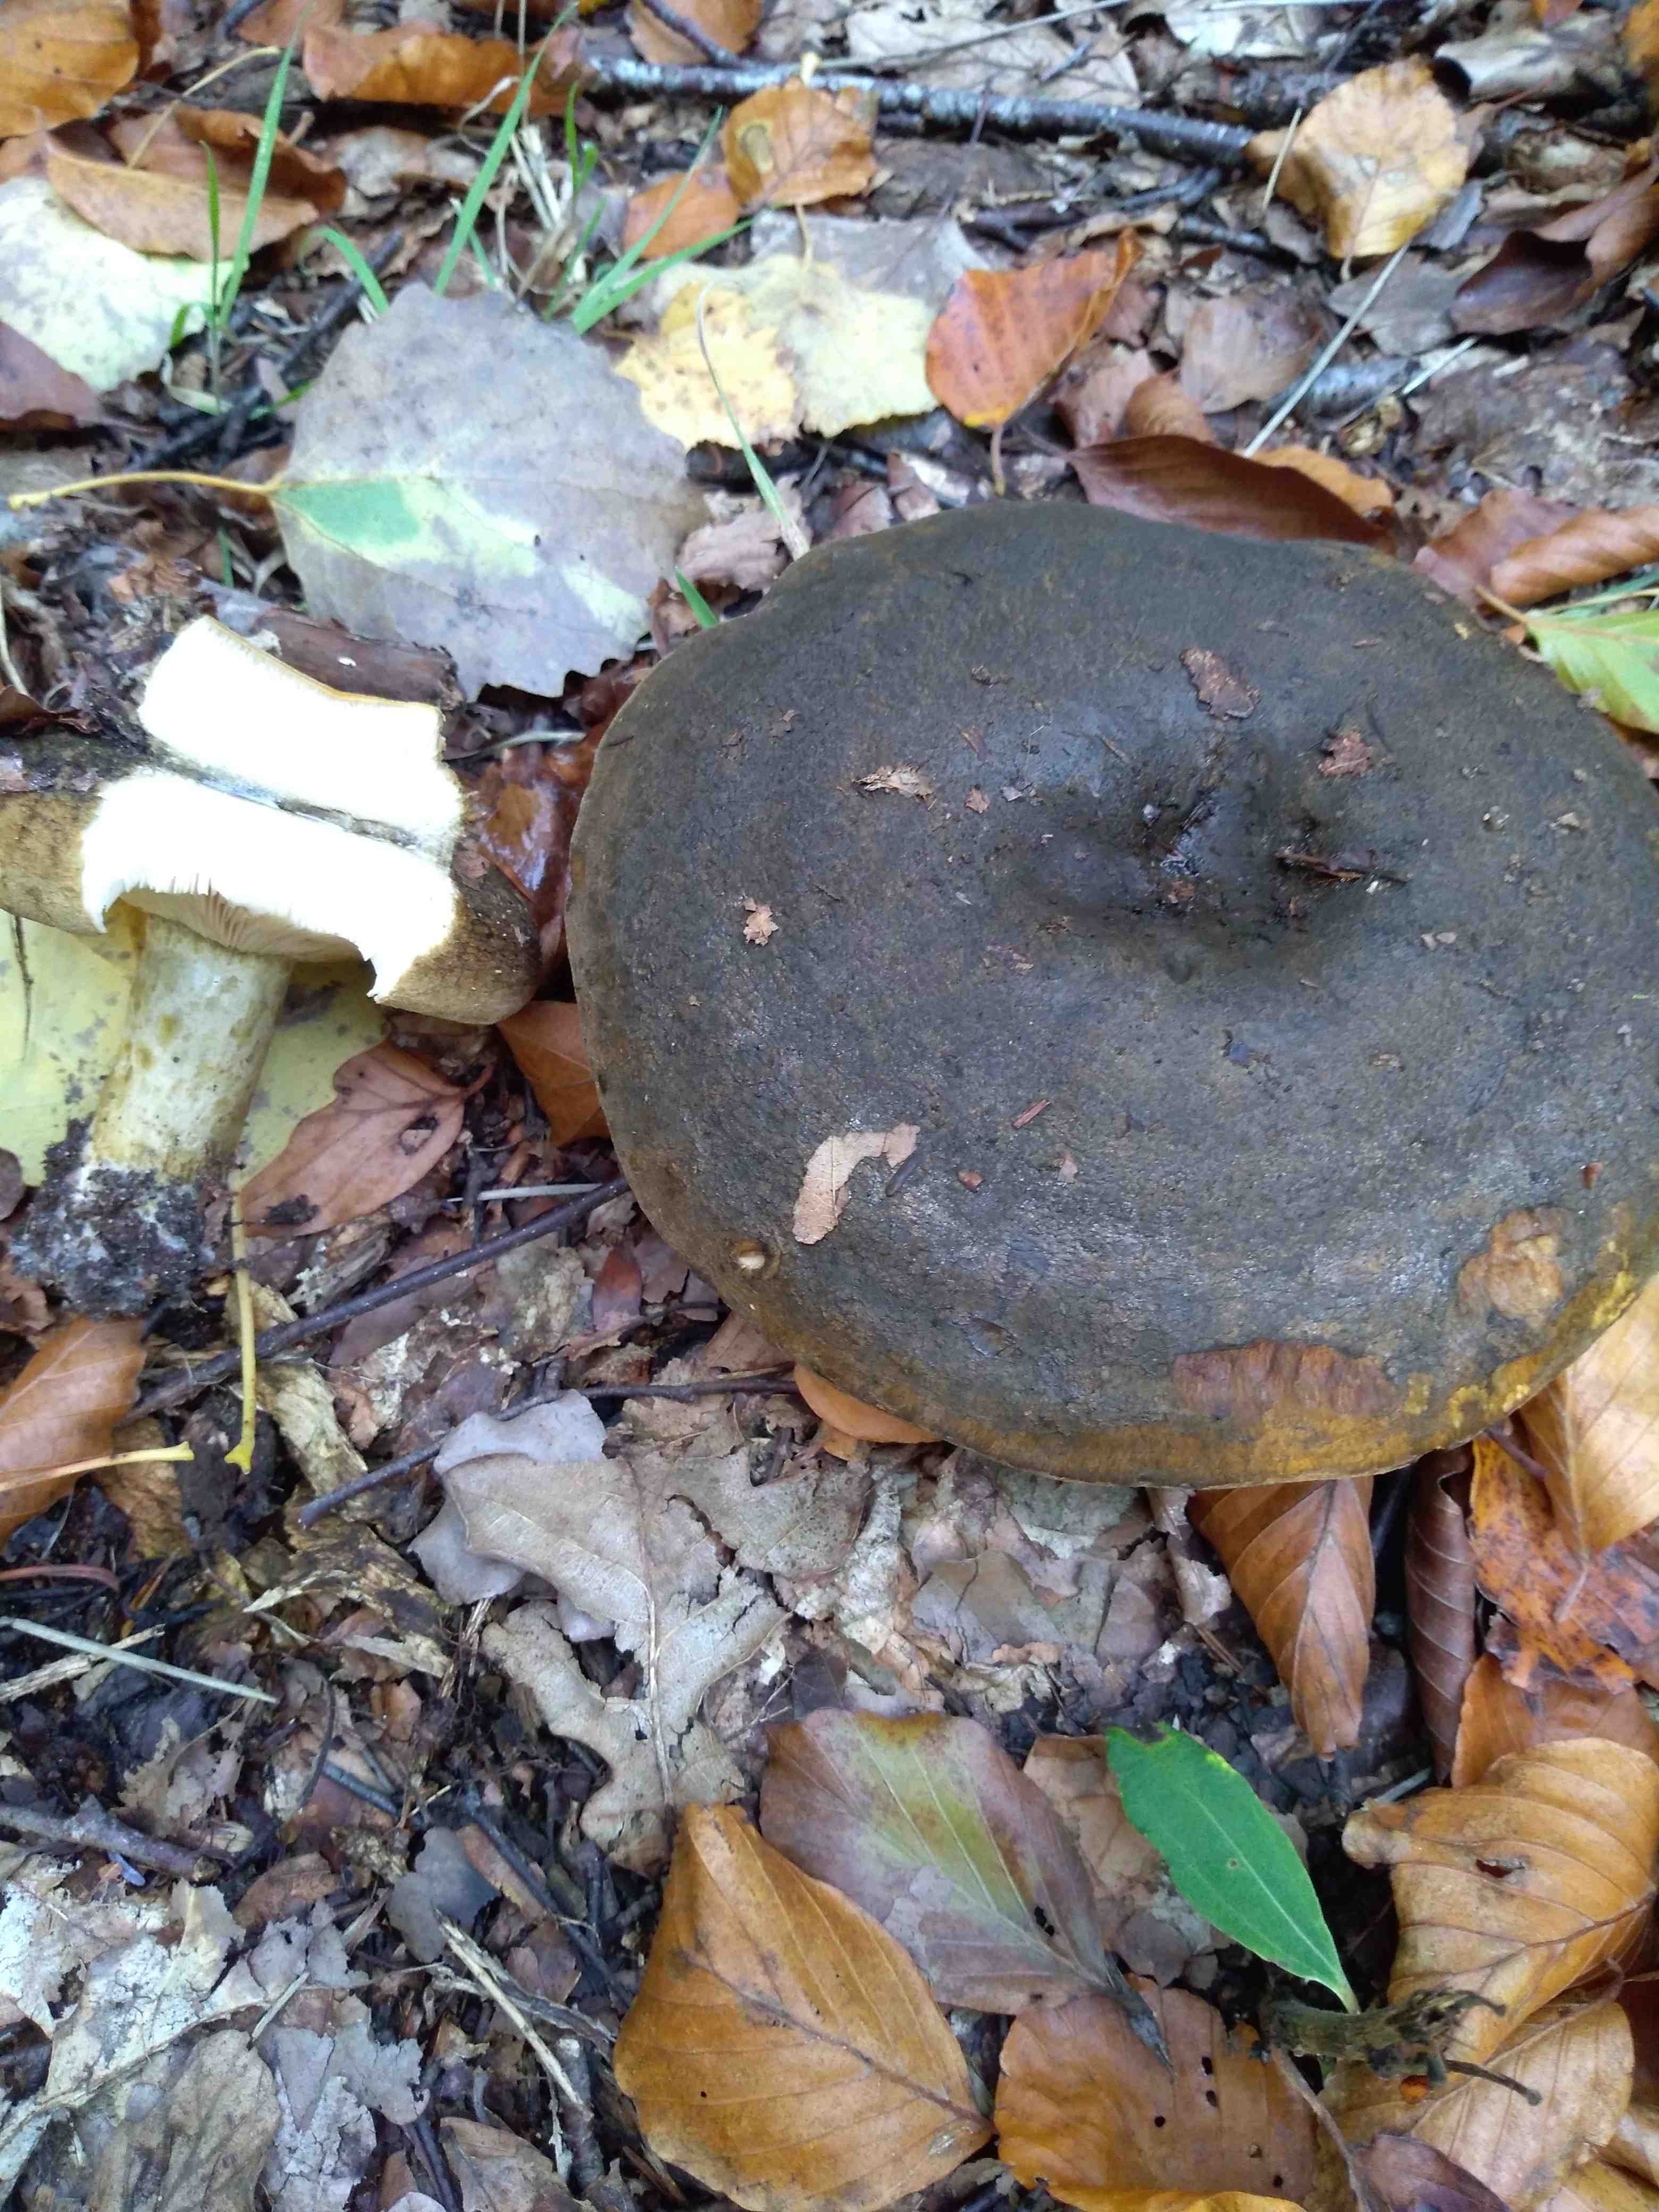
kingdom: Fungi
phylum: Basidiomycota
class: Agaricomycetes
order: Russulales
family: Russulaceae
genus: Lactarius
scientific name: Lactarius necator
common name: manddraber-mælkehat
